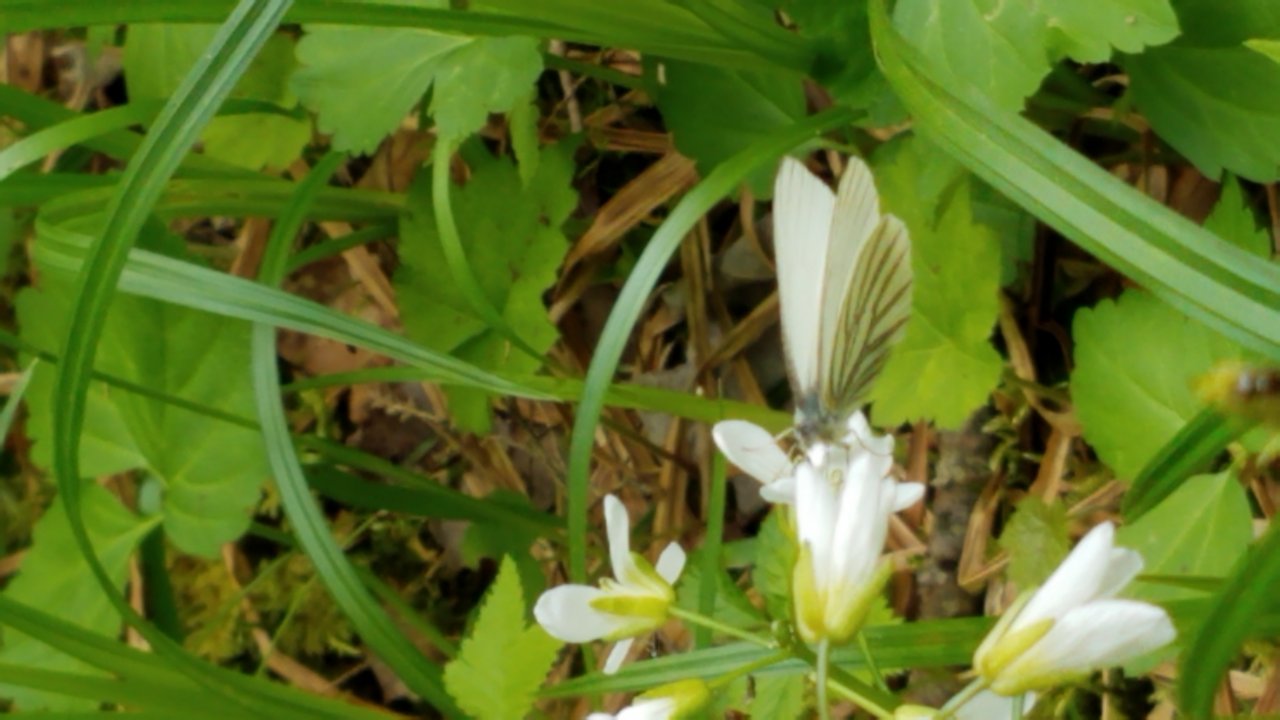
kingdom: Animalia
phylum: Arthropoda
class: Insecta
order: Lepidoptera
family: Pieridae
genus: Pieris
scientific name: Pieris oleracea
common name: Mustard White
